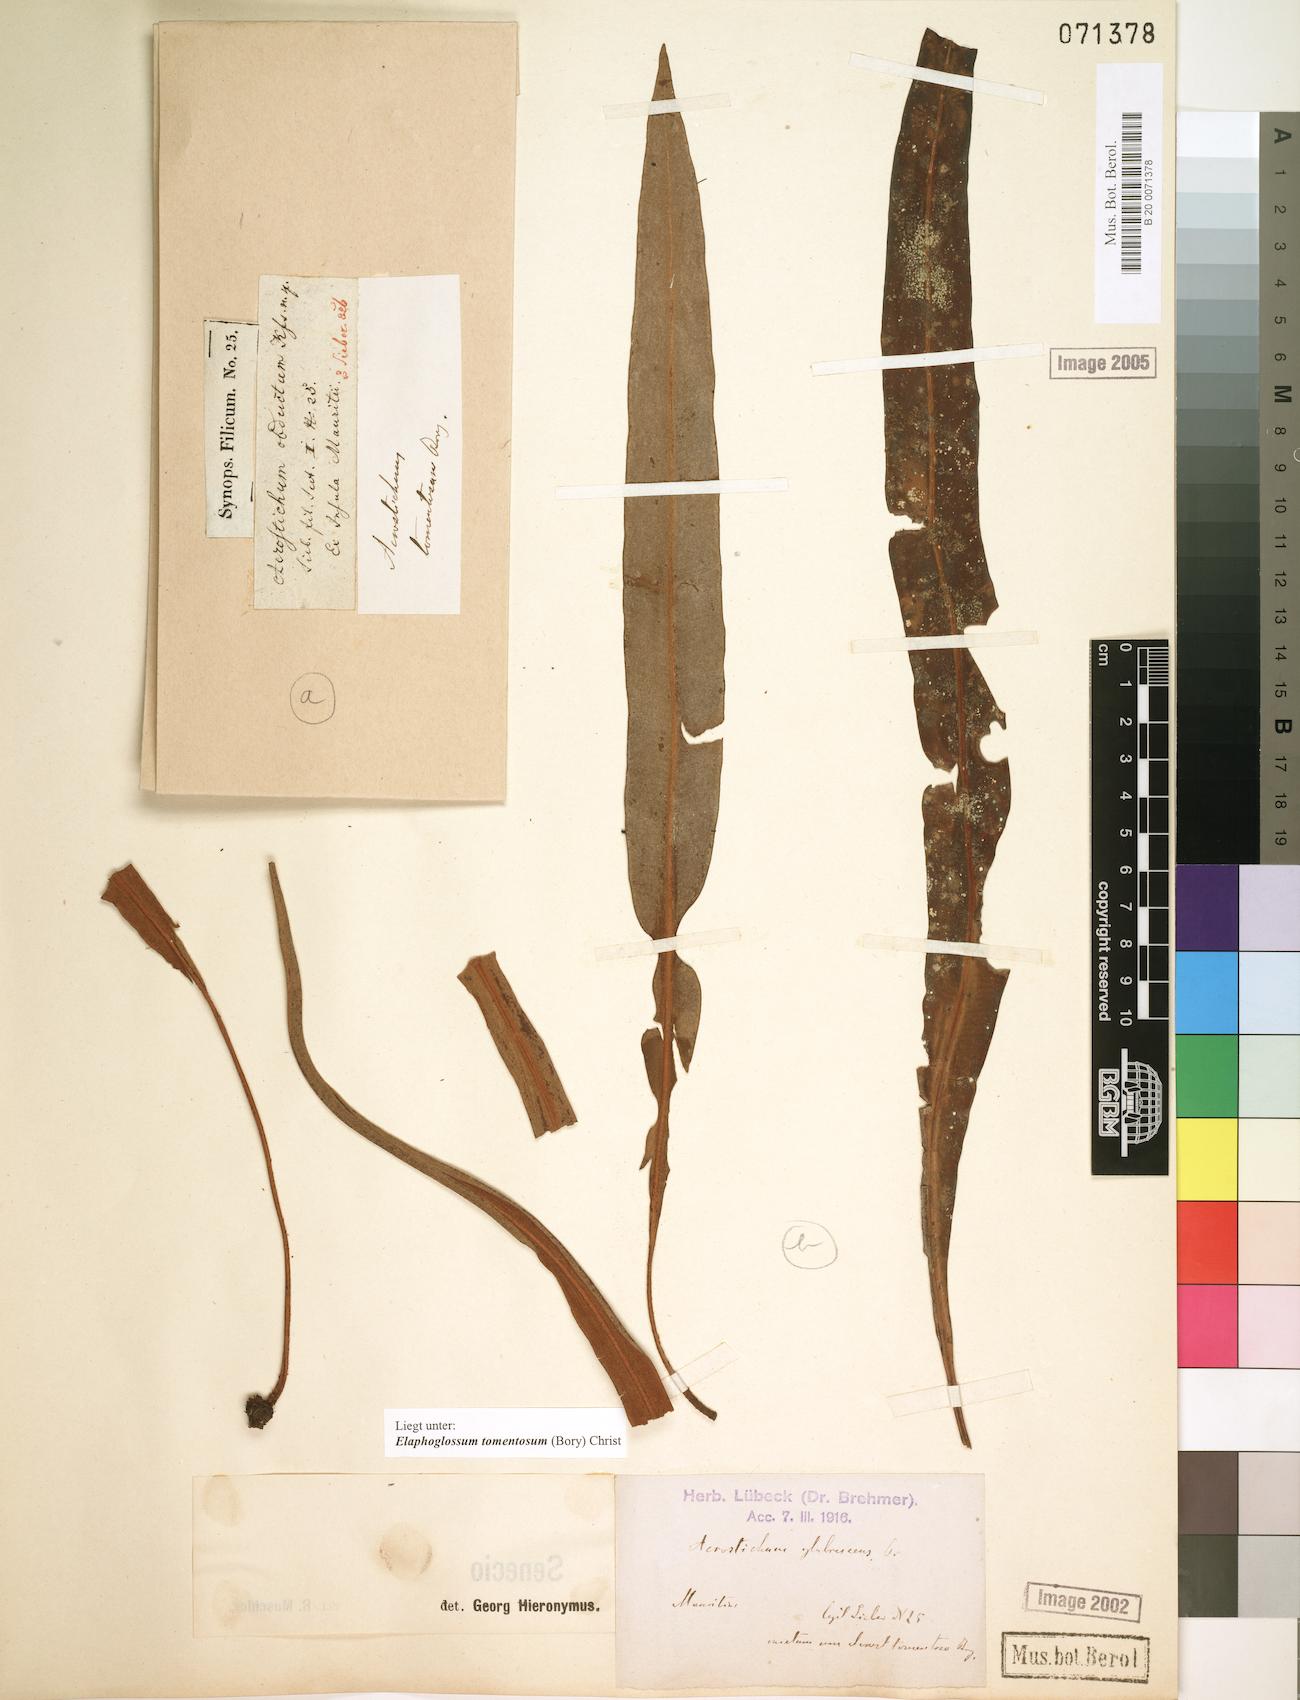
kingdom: Plantae
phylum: Tracheophyta
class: Polypodiopsida
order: Polypodiales
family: Dryopteridaceae
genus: Elaphoglossum
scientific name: Elaphoglossum tomentosum
